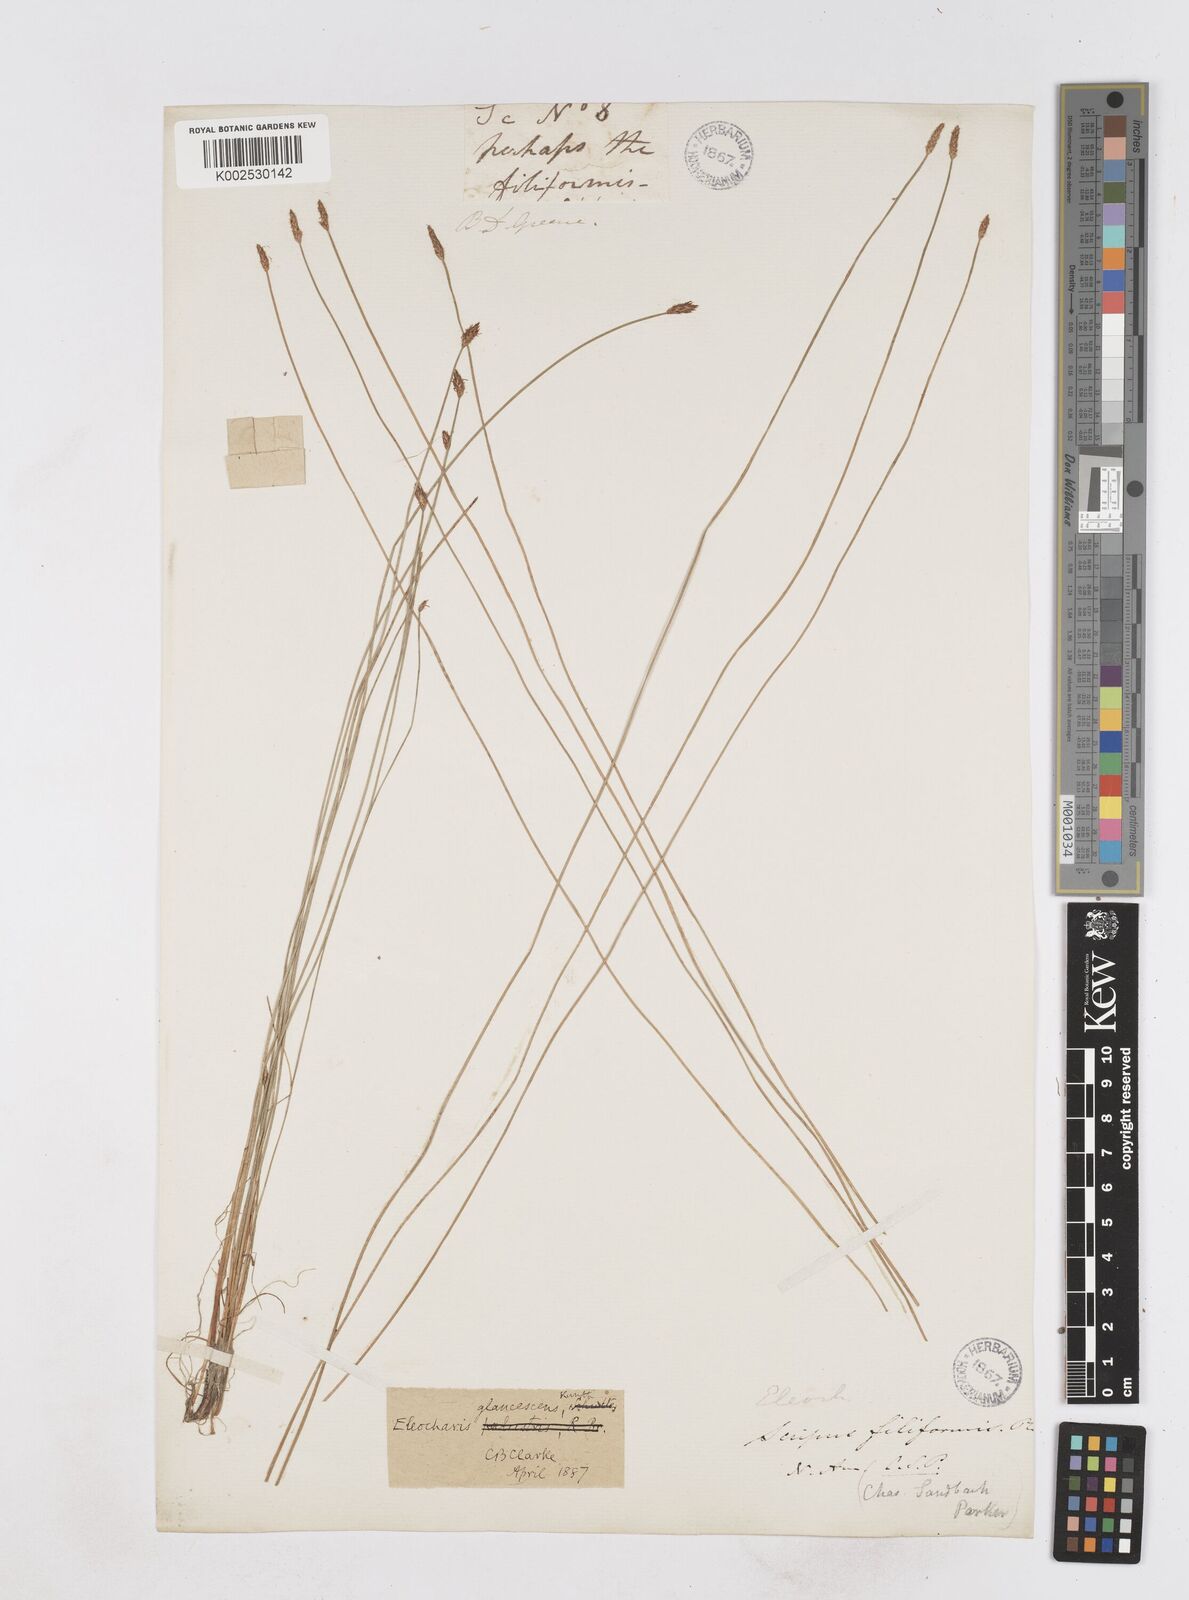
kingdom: Plantae
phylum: Tracheophyta
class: Liliopsida
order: Poales
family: Cyperaceae
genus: Eleocharis
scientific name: Eleocharis erythropoda
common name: Bald spikerush
